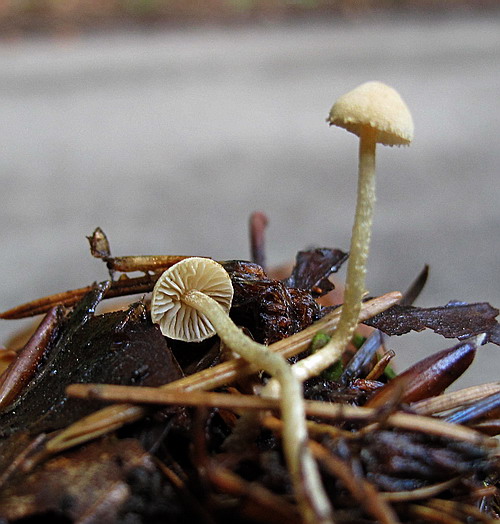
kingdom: Fungi
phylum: Basidiomycota
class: Agaricomycetes
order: Agaricales
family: Tubariaceae
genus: Flammulaster
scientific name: Flammulaster carpophilus
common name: bøge-grynskælhat
